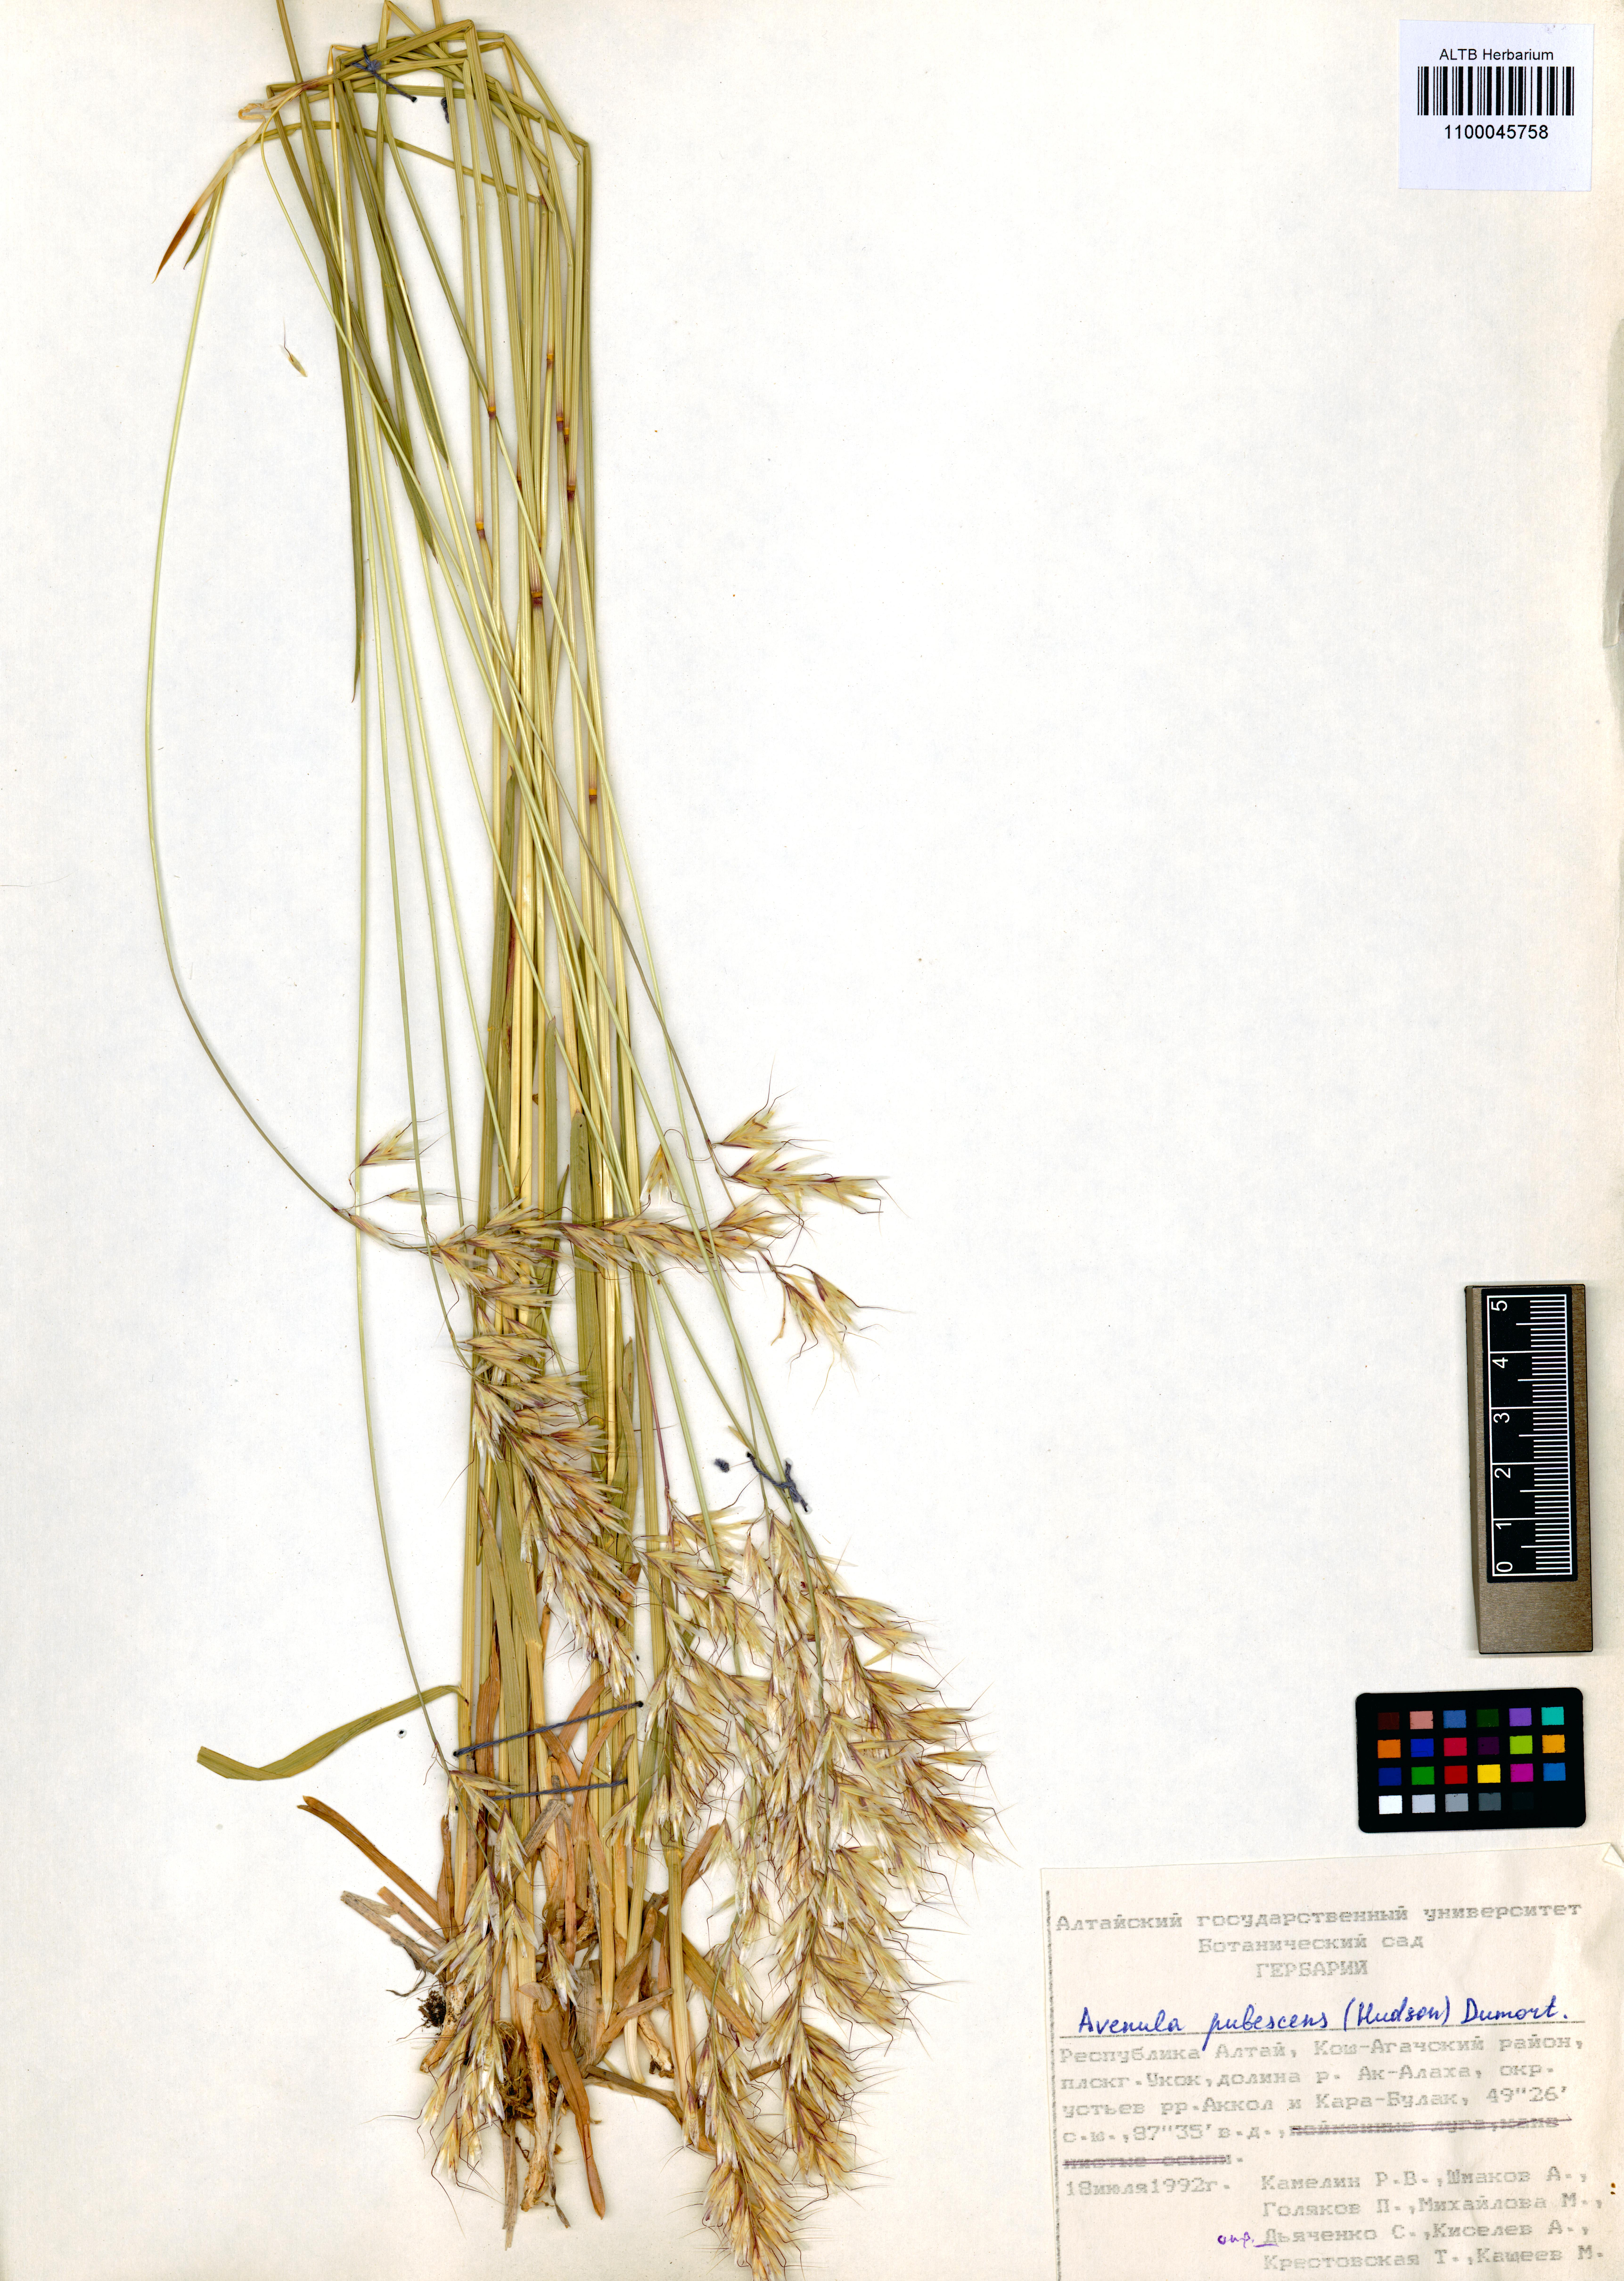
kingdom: Plantae
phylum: Tracheophyta
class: Liliopsida
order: Poales
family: Poaceae
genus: Avenula
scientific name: Avenula pubescens
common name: Downy alpine oatgrass
